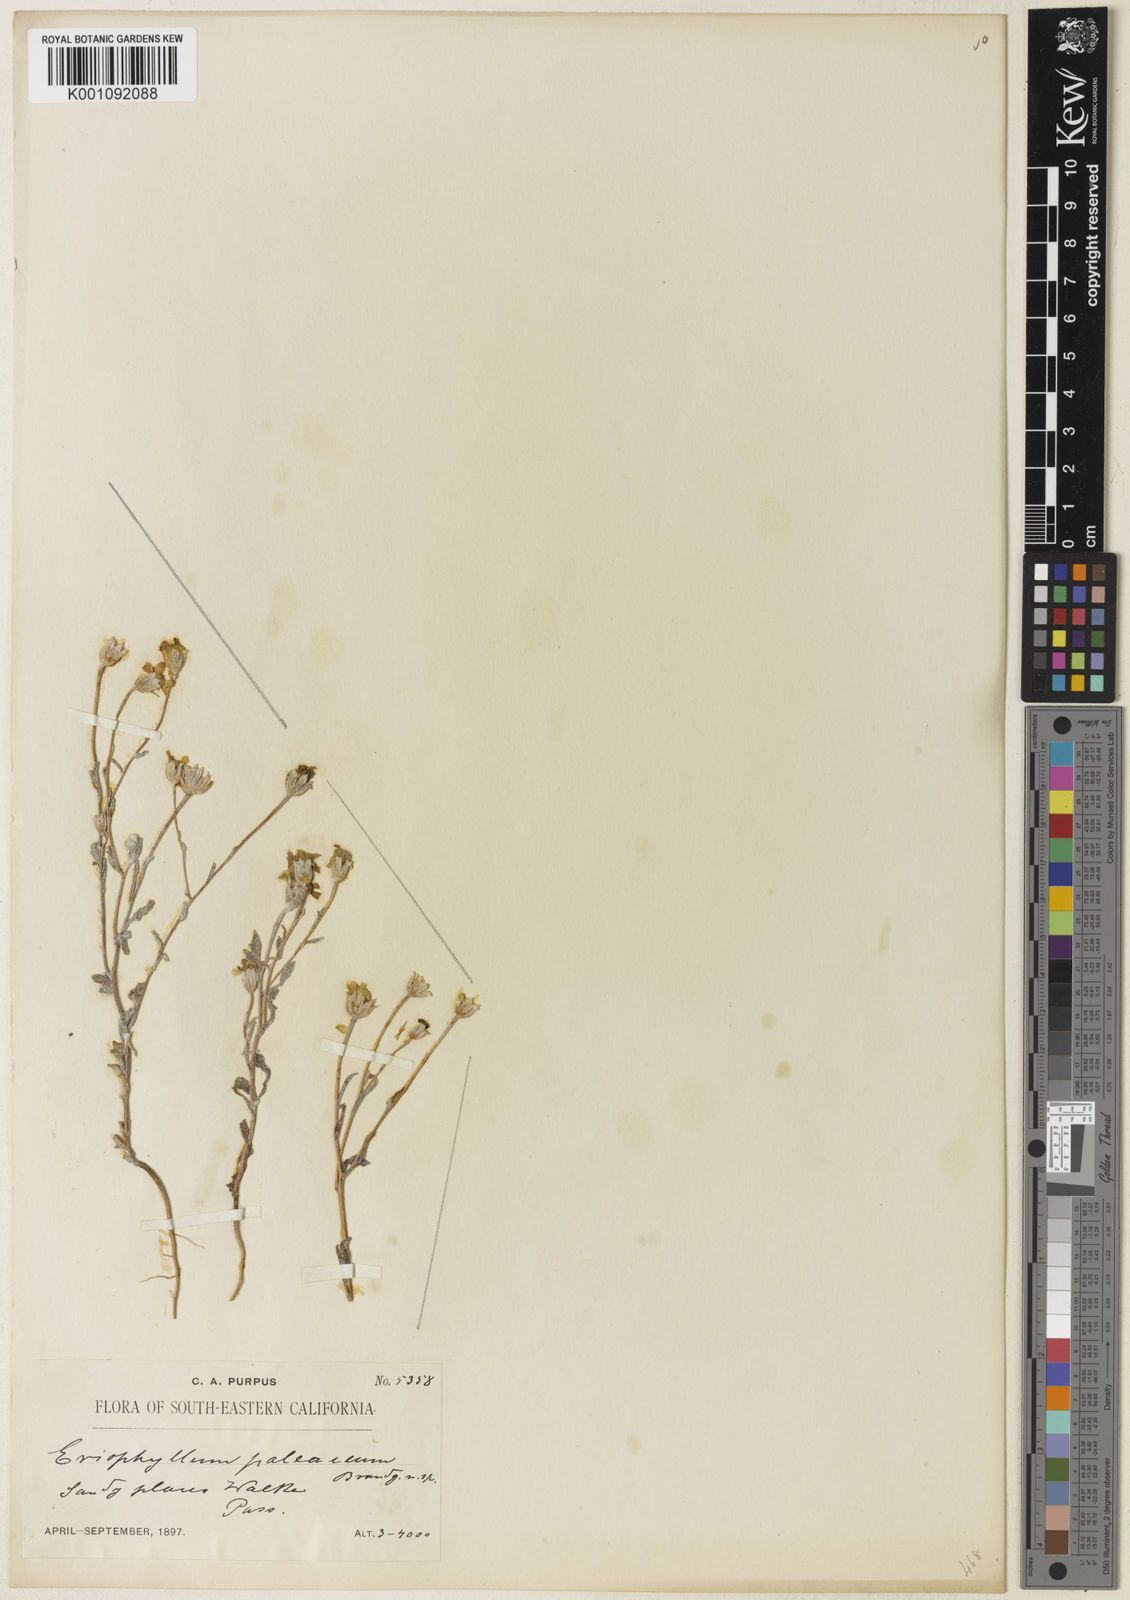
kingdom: Plantae
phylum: Tracheophyta
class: Magnoliopsida
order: Asterales
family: Asteraceae
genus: Eriophyllum
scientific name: Eriophyllum ambiguum
